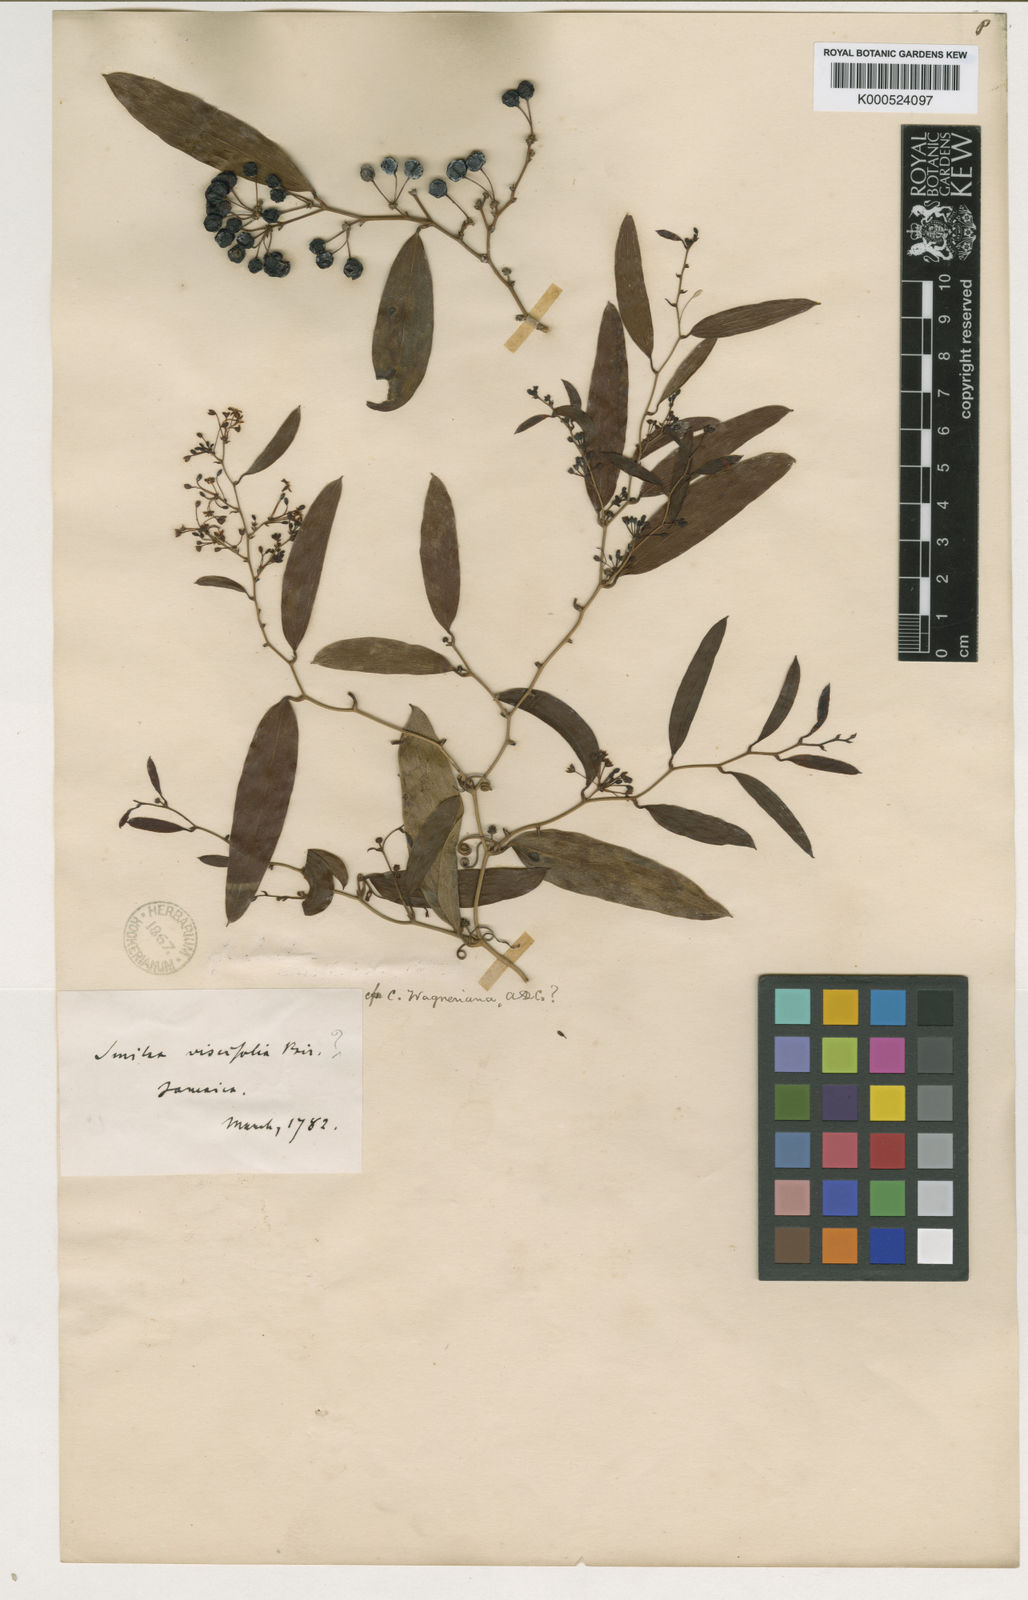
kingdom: Plantae
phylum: Tracheophyta
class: Liliopsida
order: Liliales
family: Smilacaceae
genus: Smilax
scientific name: Smilax domingensis
